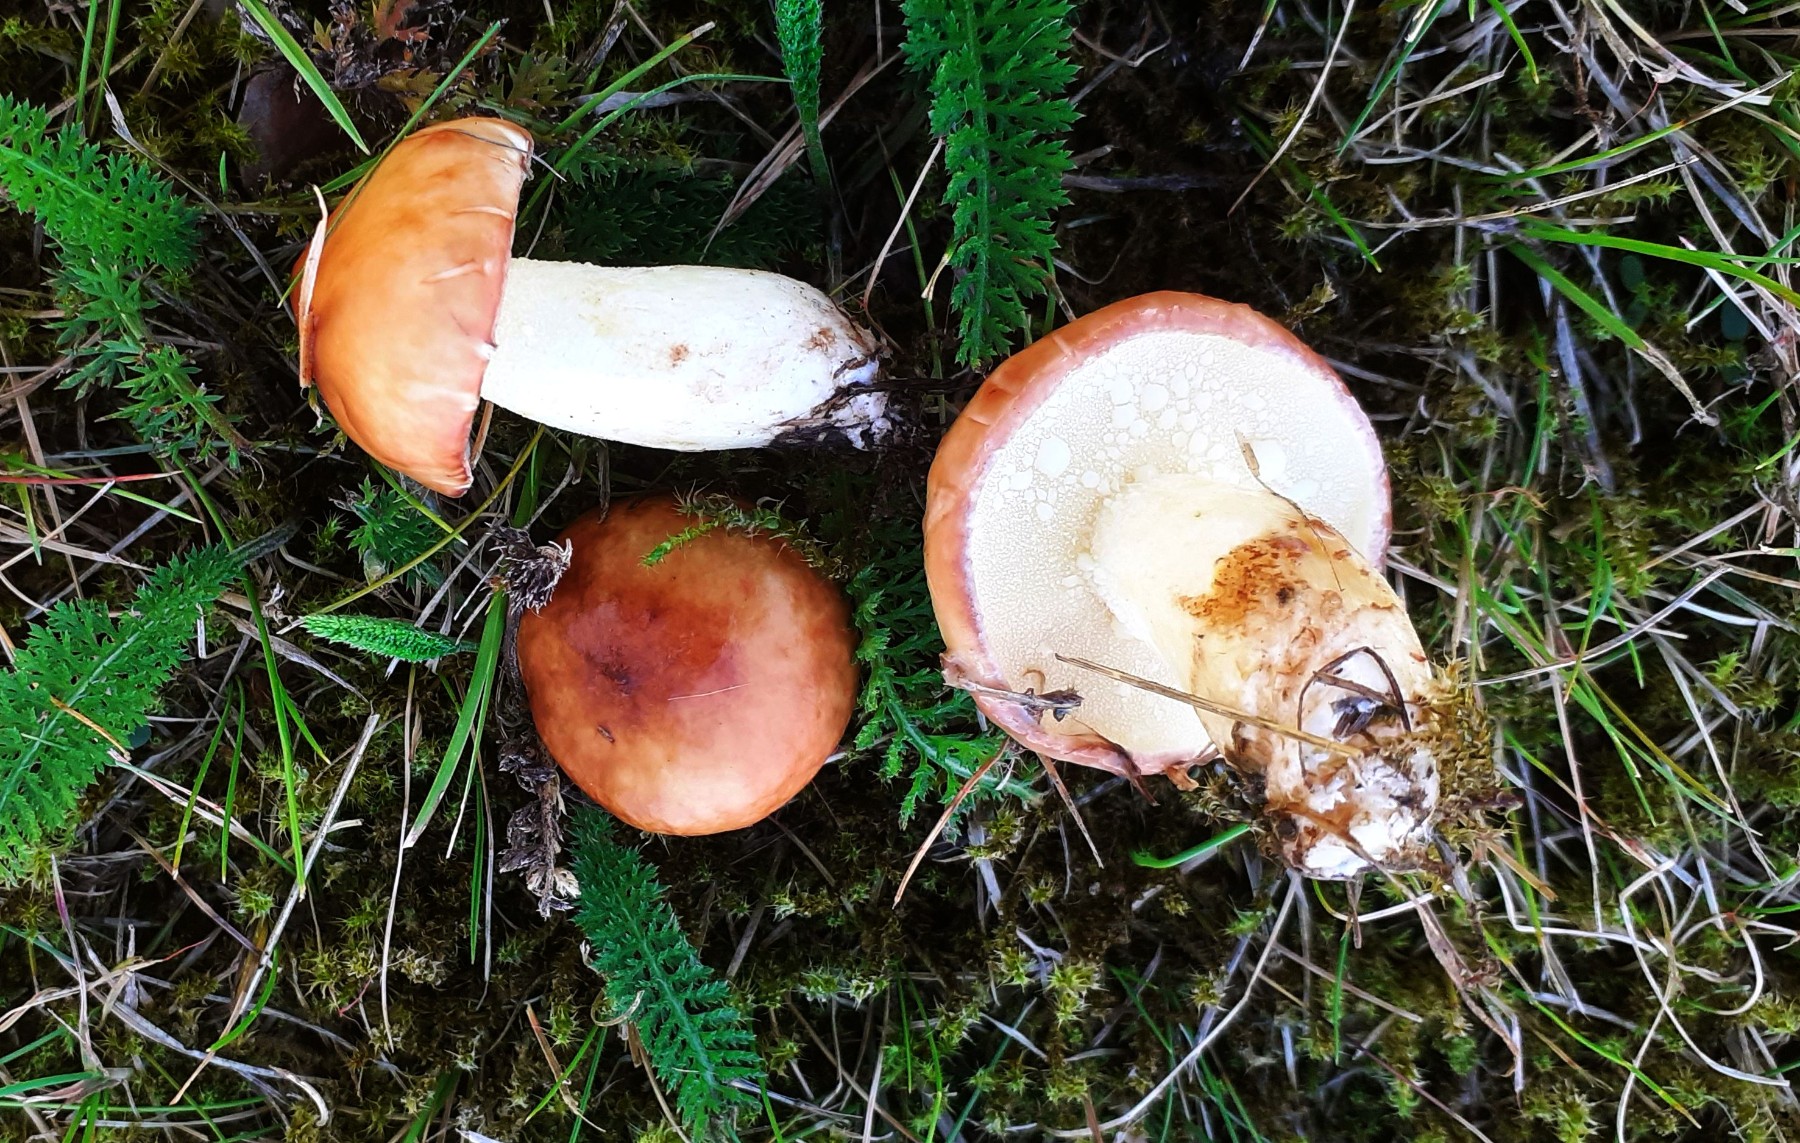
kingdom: Fungi
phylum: Basidiomycota
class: Agaricomycetes
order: Boletales
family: Suillaceae
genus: Suillus
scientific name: Suillus granulatus
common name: kornet slimrørhat
